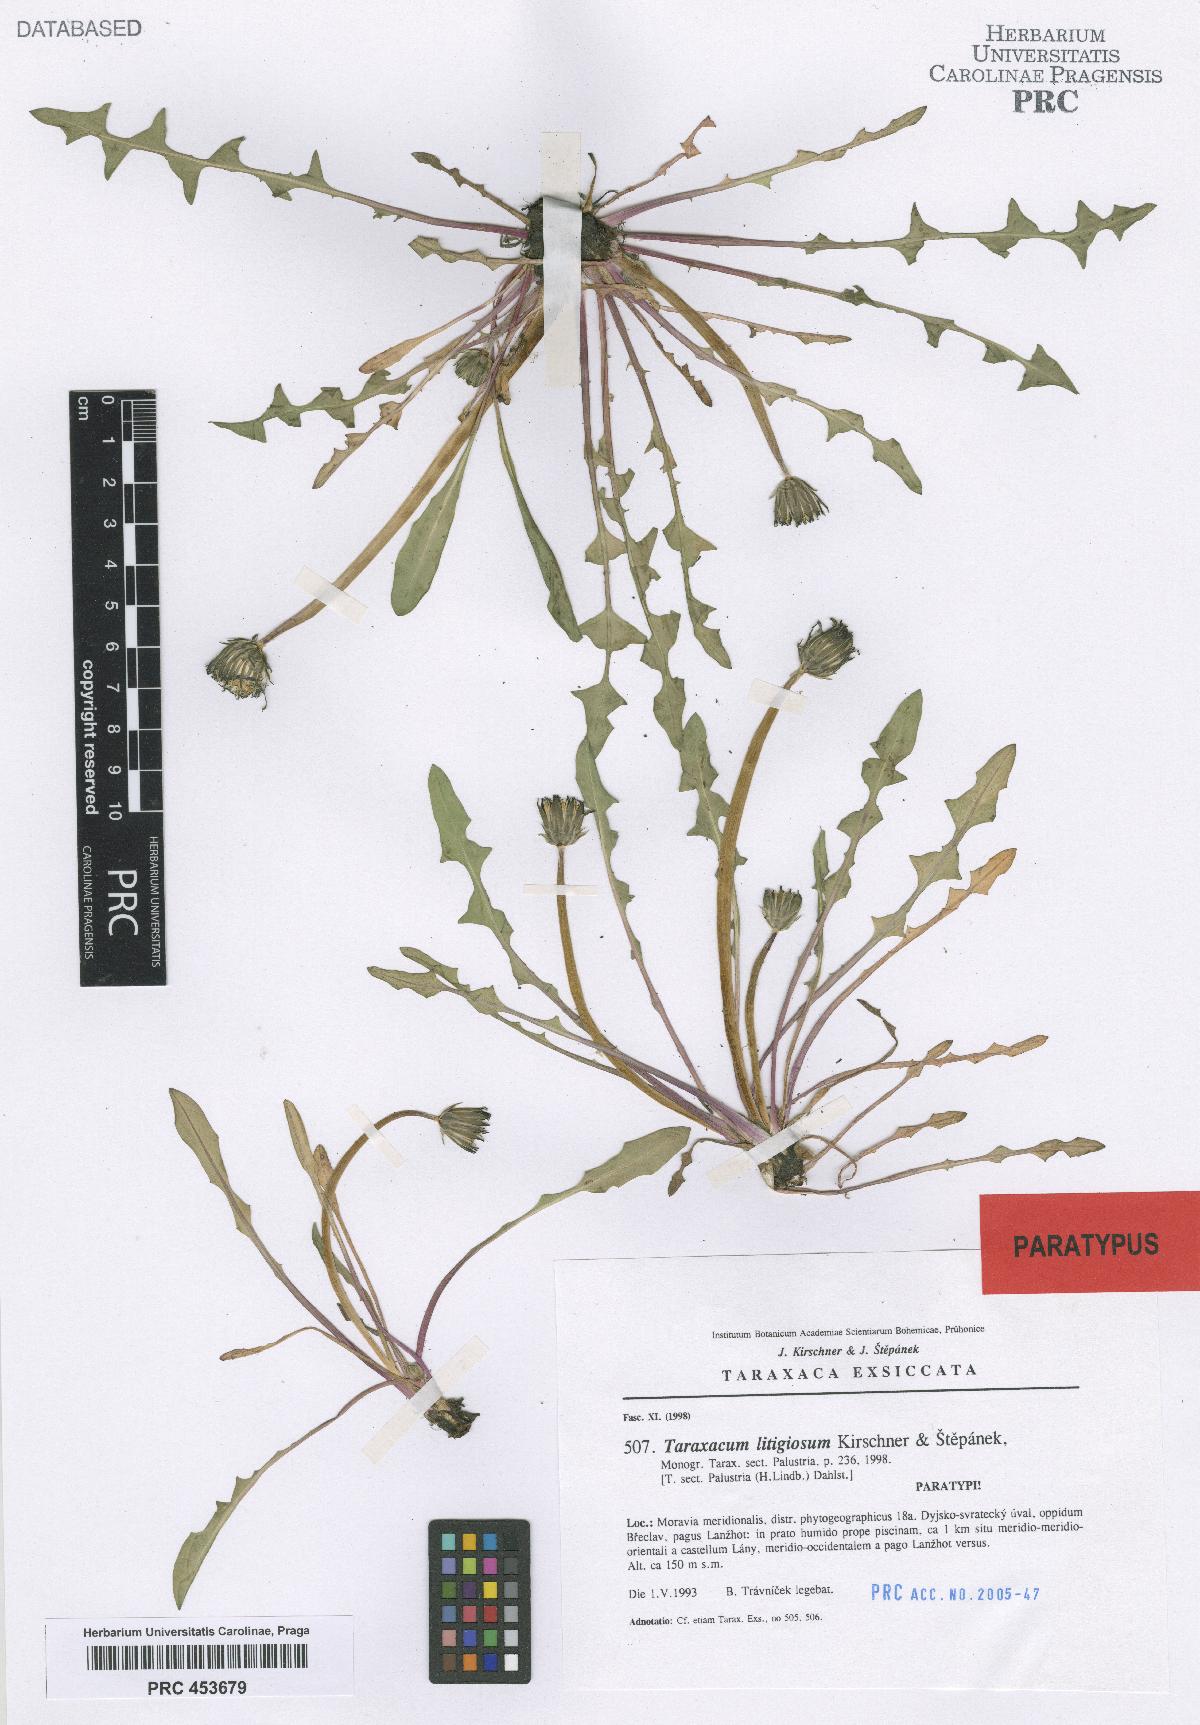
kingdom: Plantae
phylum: Tracheophyta
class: Magnoliopsida
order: Asterales
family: Asteraceae
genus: Taraxacum
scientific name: Taraxacum litigiosum
